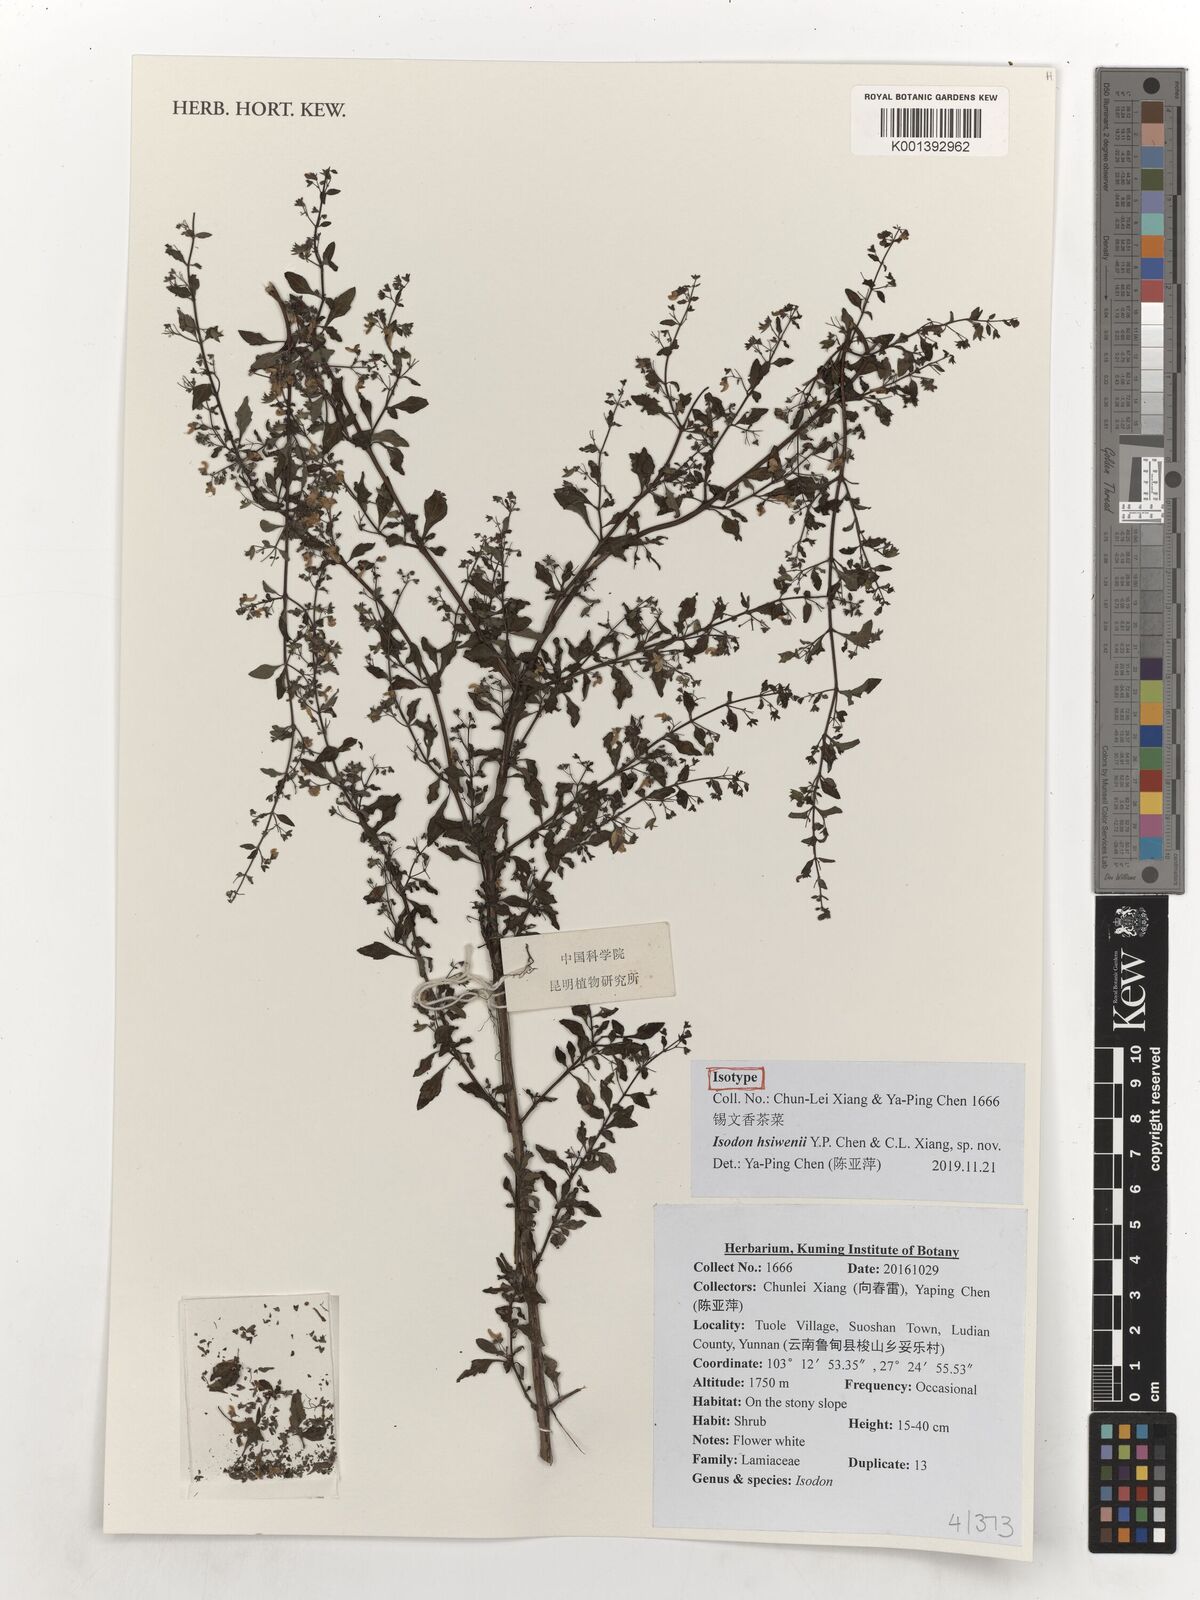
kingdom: Plantae
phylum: Tracheophyta
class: Magnoliopsida
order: Lamiales
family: Lamiaceae
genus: Isodon
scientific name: Isodon
